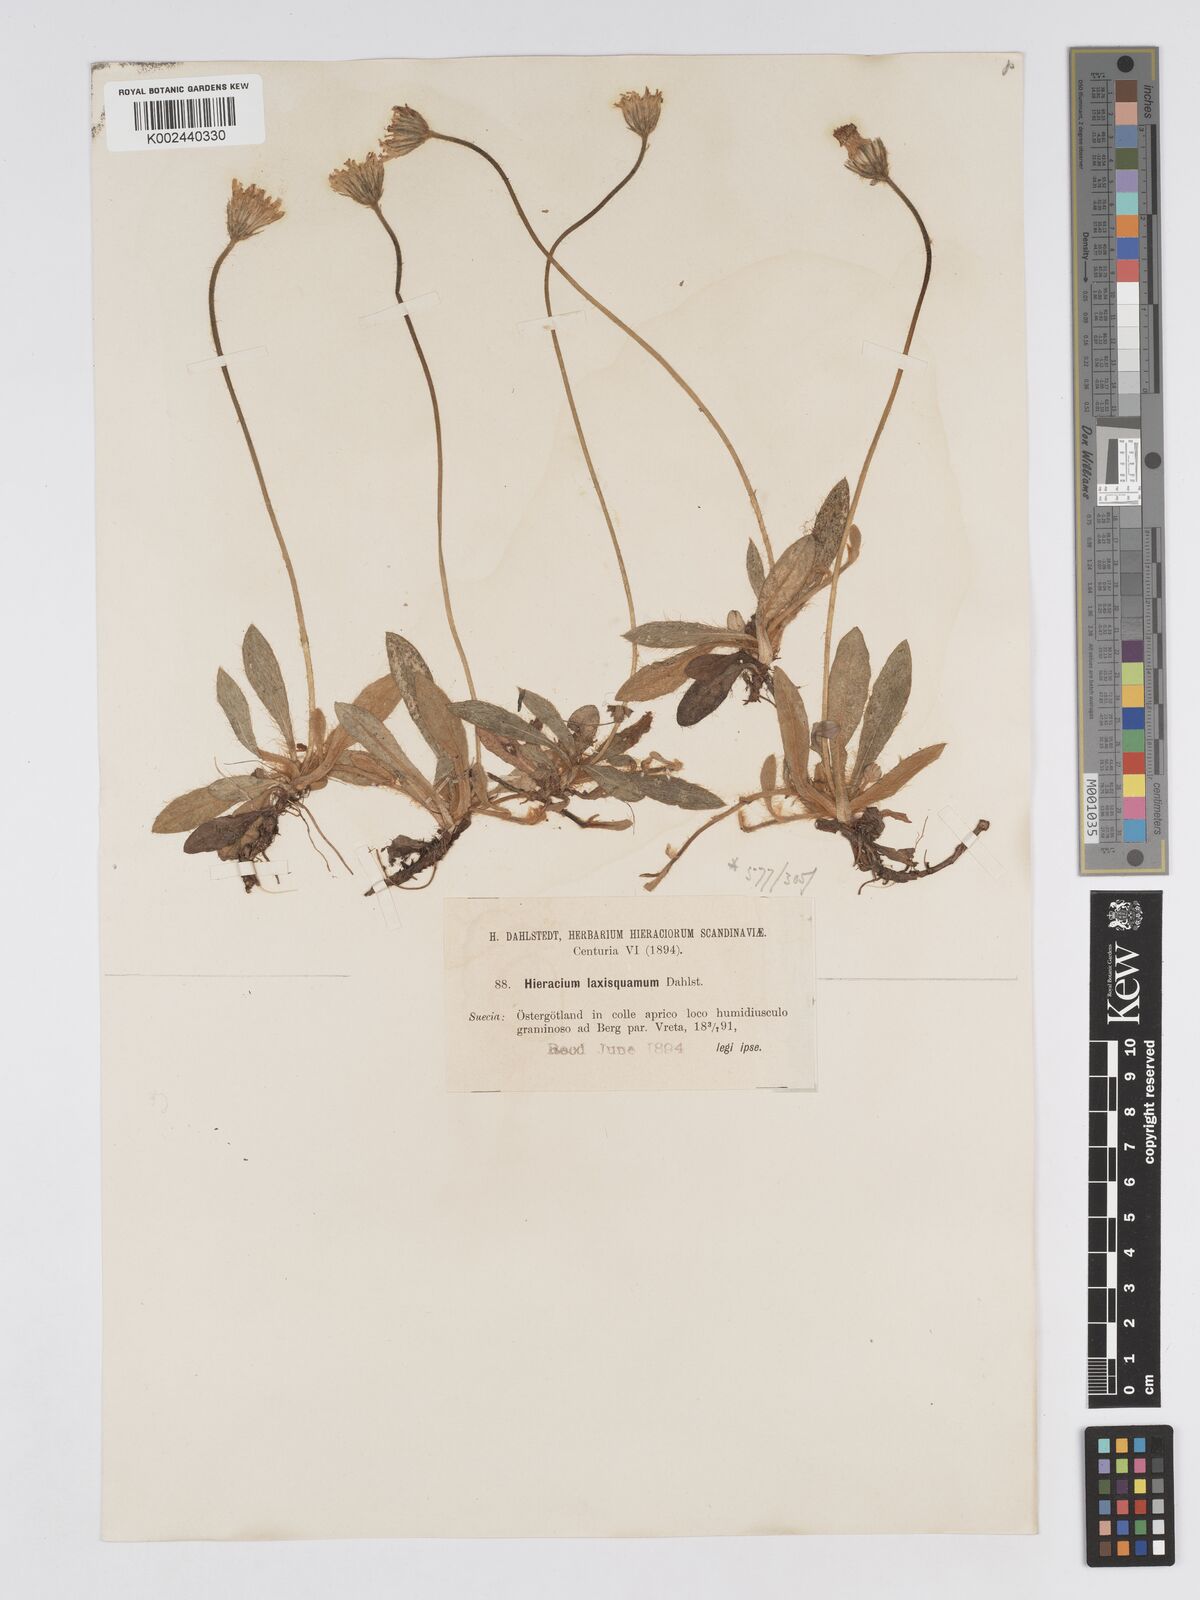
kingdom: Plantae
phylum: Tracheophyta
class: Magnoliopsida
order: Asterales
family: Asteraceae
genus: Pilosella
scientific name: Pilosella officinarum
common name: Mouse-ear hawkweed
